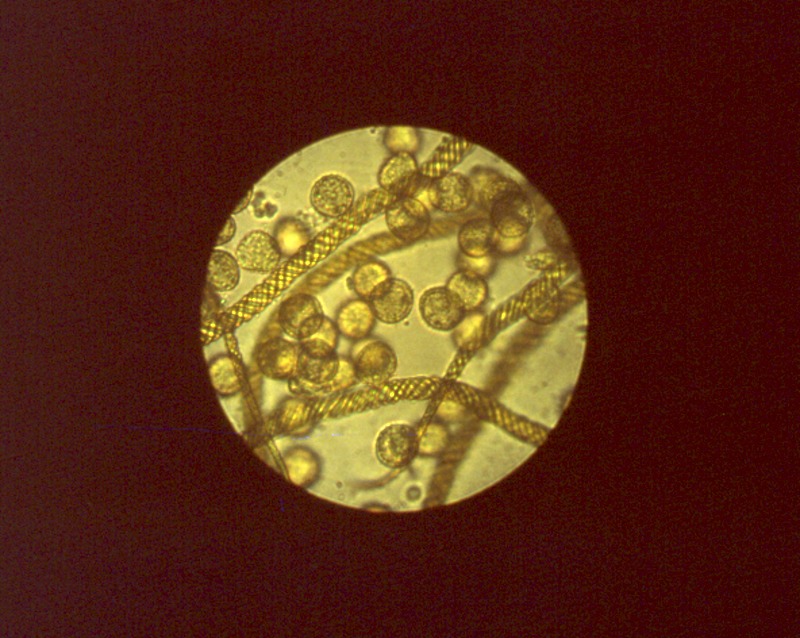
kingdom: Protozoa
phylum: Mycetozoa
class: Myxomycetes
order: Trichiales
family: Arcyriaceae
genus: Hemitrichia
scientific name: Hemitrichia decipiens
